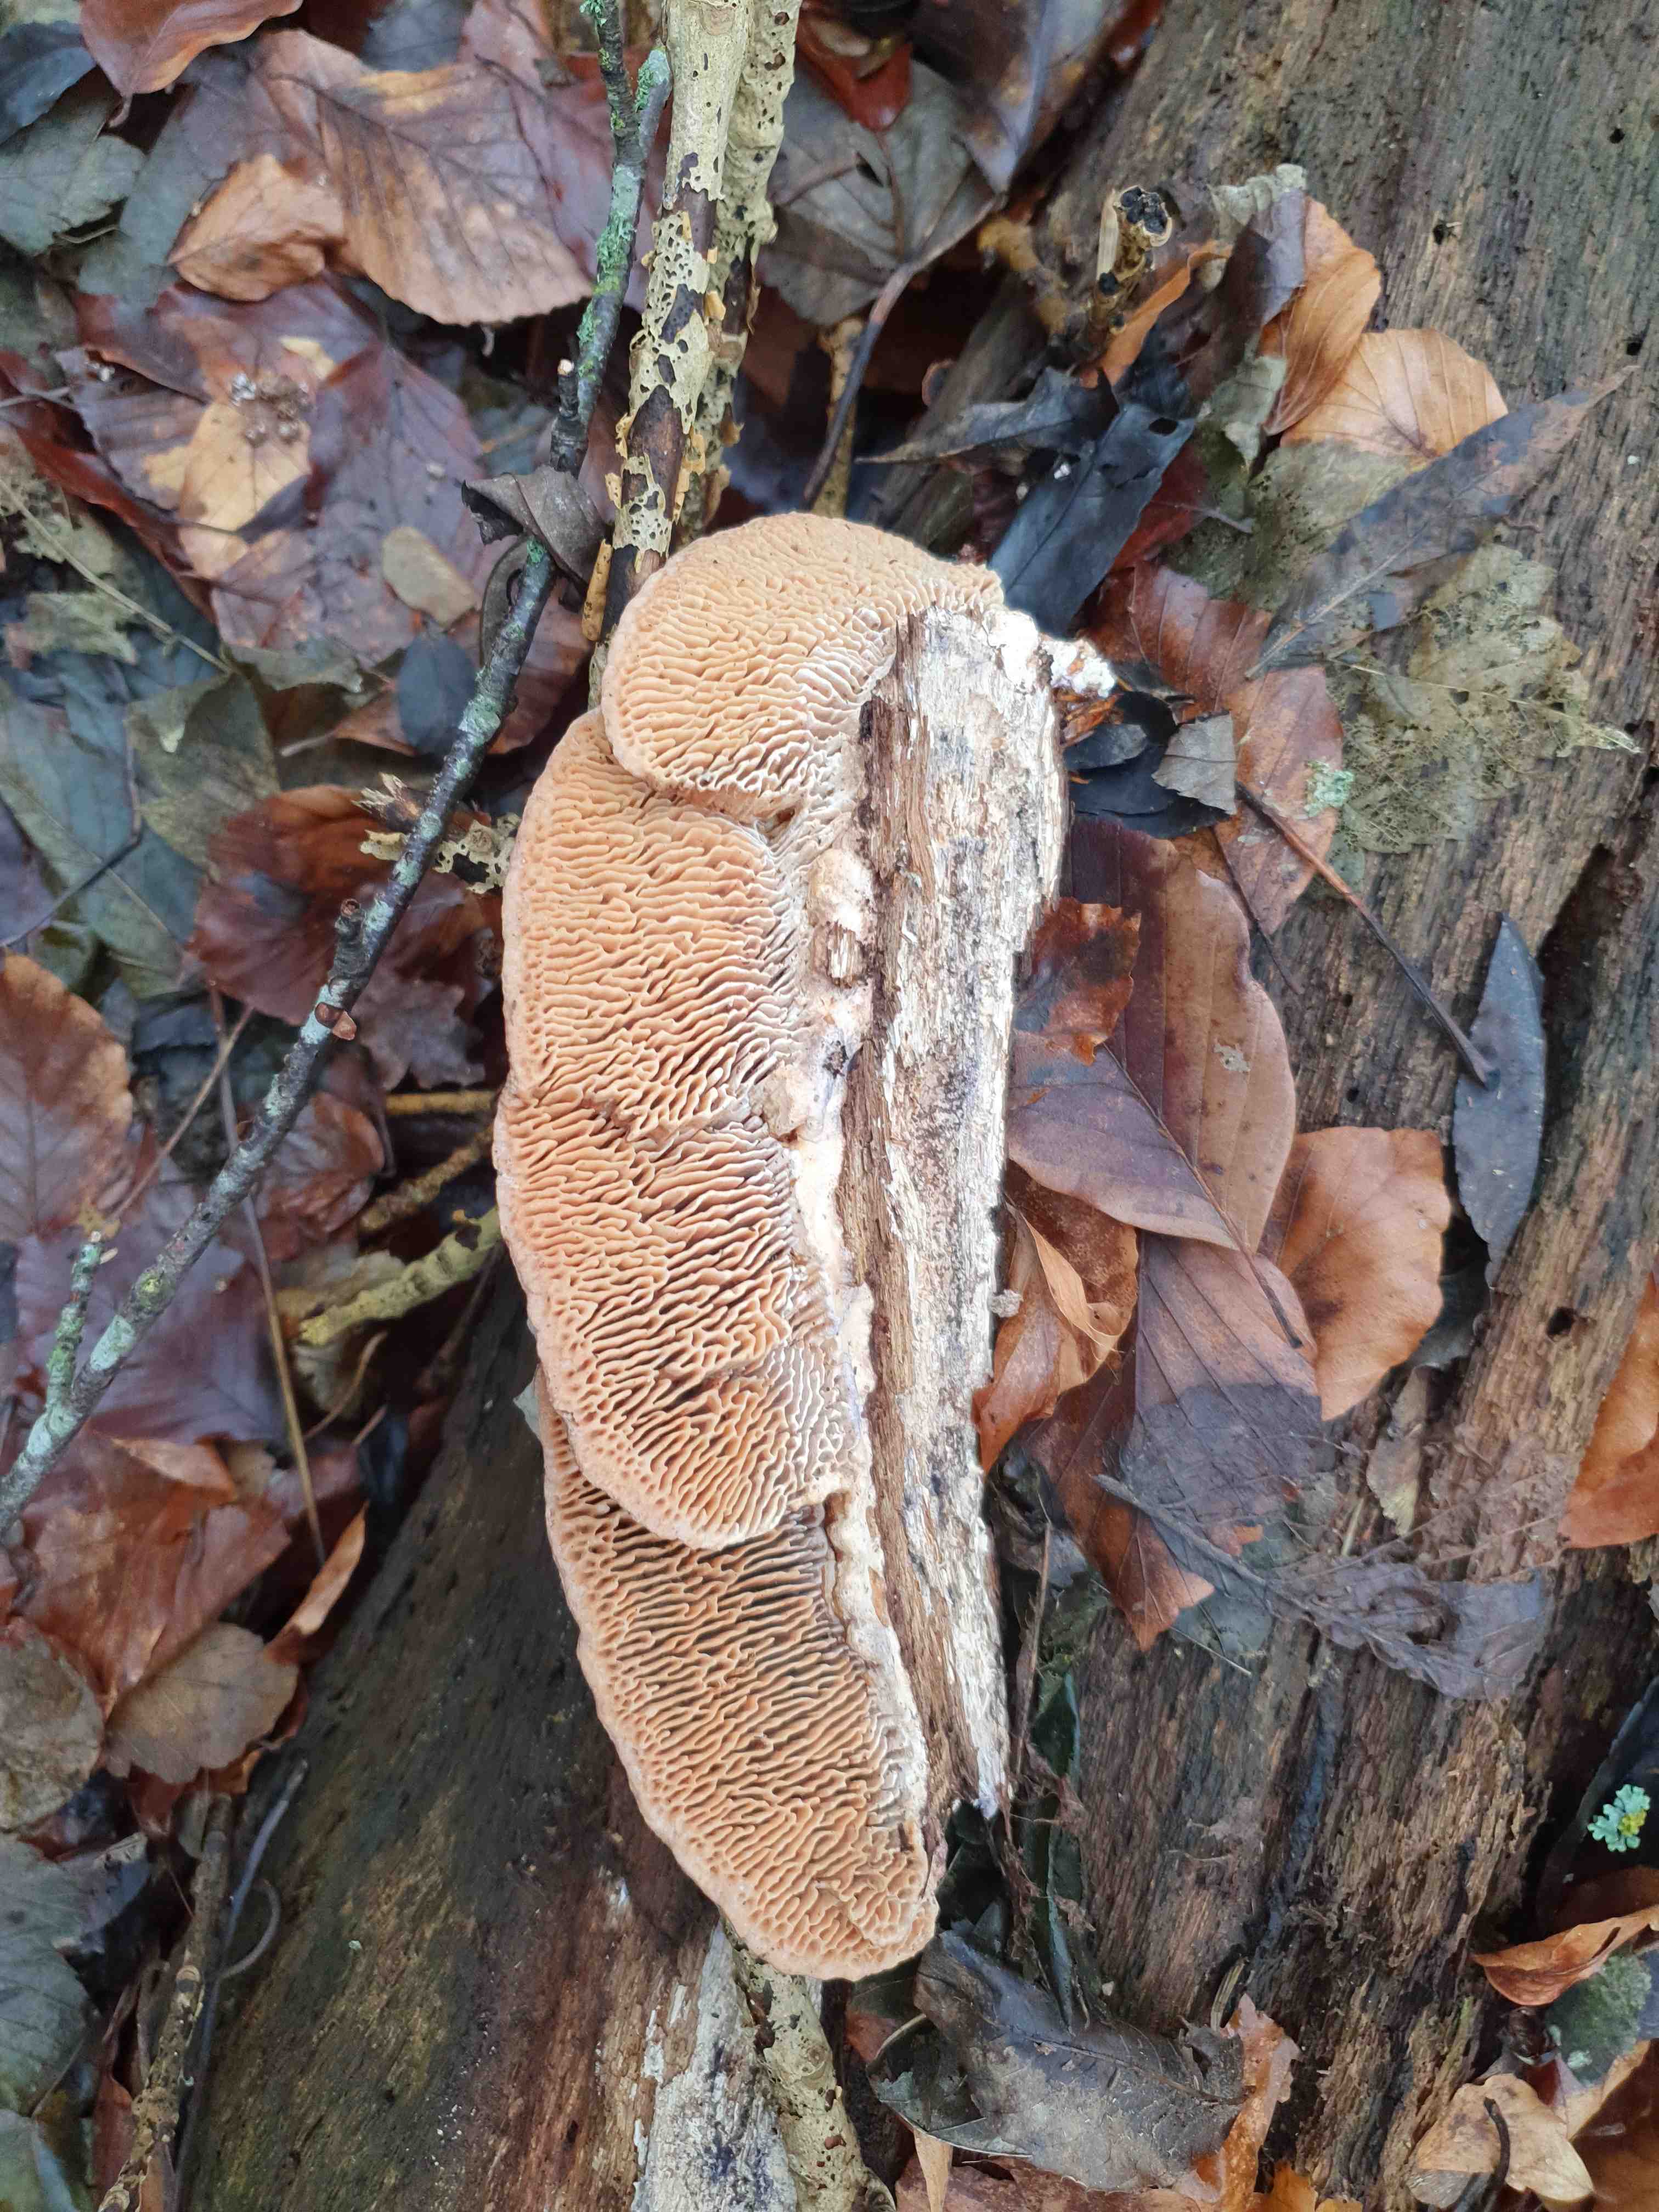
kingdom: Fungi
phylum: Basidiomycota
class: Agaricomycetes
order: Polyporales
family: Fomitopsidaceae
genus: Daedalea
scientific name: Daedalea quercina
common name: ege-labyrintsvamp
